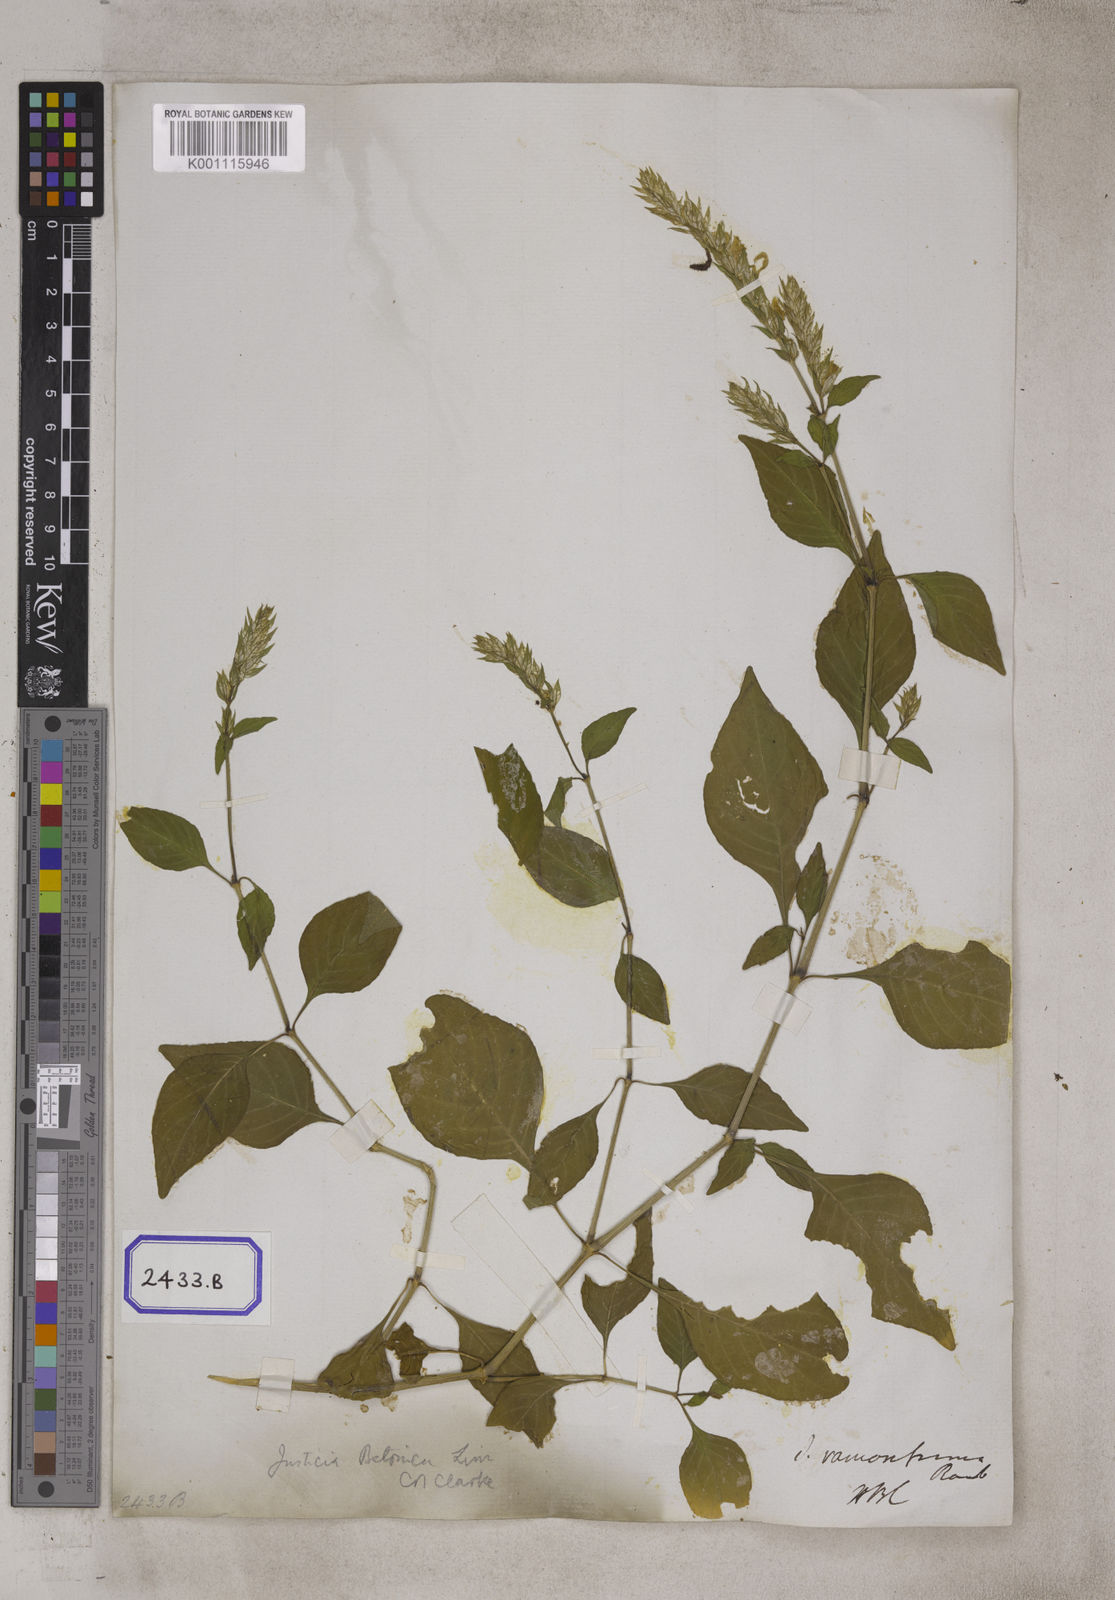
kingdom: Plantae
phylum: Tracheophyta
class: Magnoliopsida
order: Lamiales
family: Acanthaceae
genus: Nicoteba
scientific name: Nicoteba betonica
